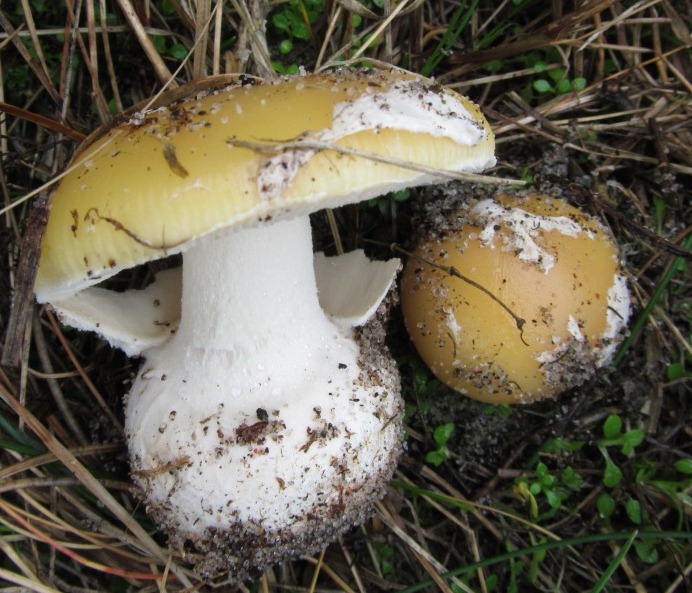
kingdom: Fungi
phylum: Basidiomycota
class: Agaricomycetes
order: Agaricales
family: Amanitaceae
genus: Amanita
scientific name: Amanita gemmata
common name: okkergul fluesvamp
